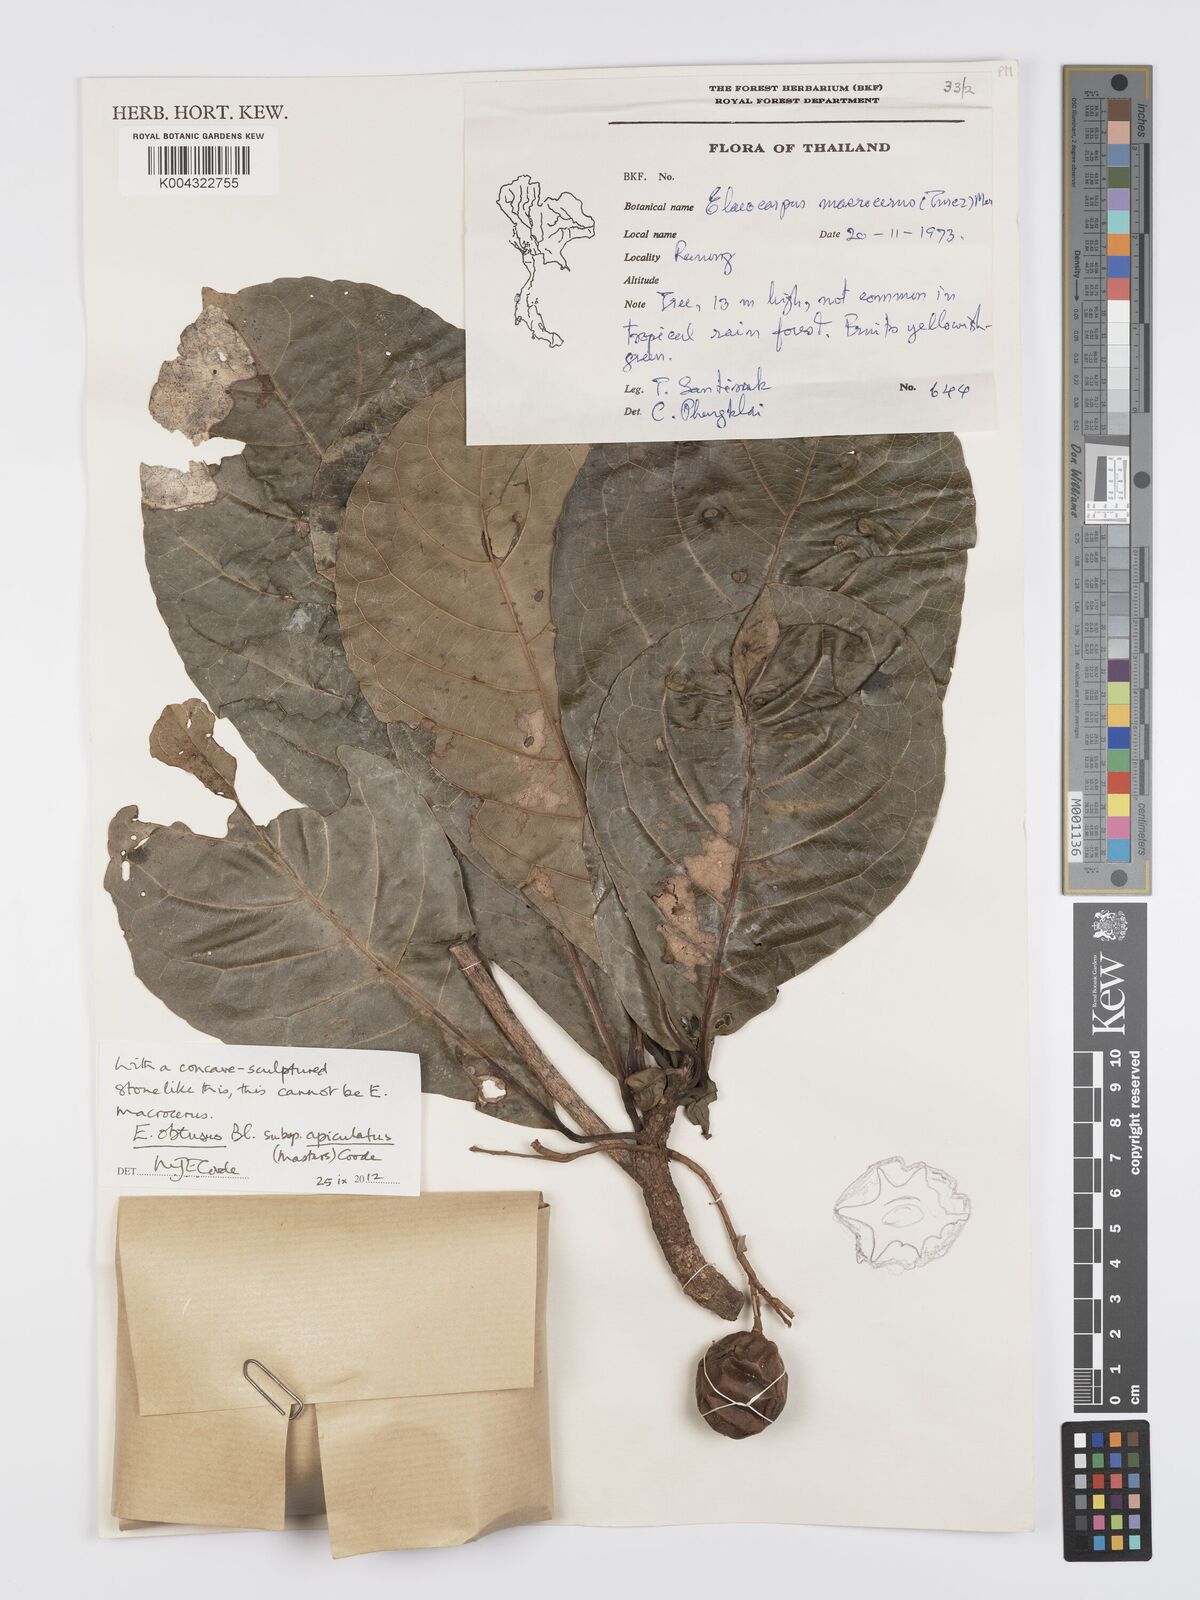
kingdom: Plantae
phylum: Tracheophyta
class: Magnoliopsida
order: Oxalidales
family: Elaeocarpaceae
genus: Elaeocarpus
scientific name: Elaeocarpus obtusus
